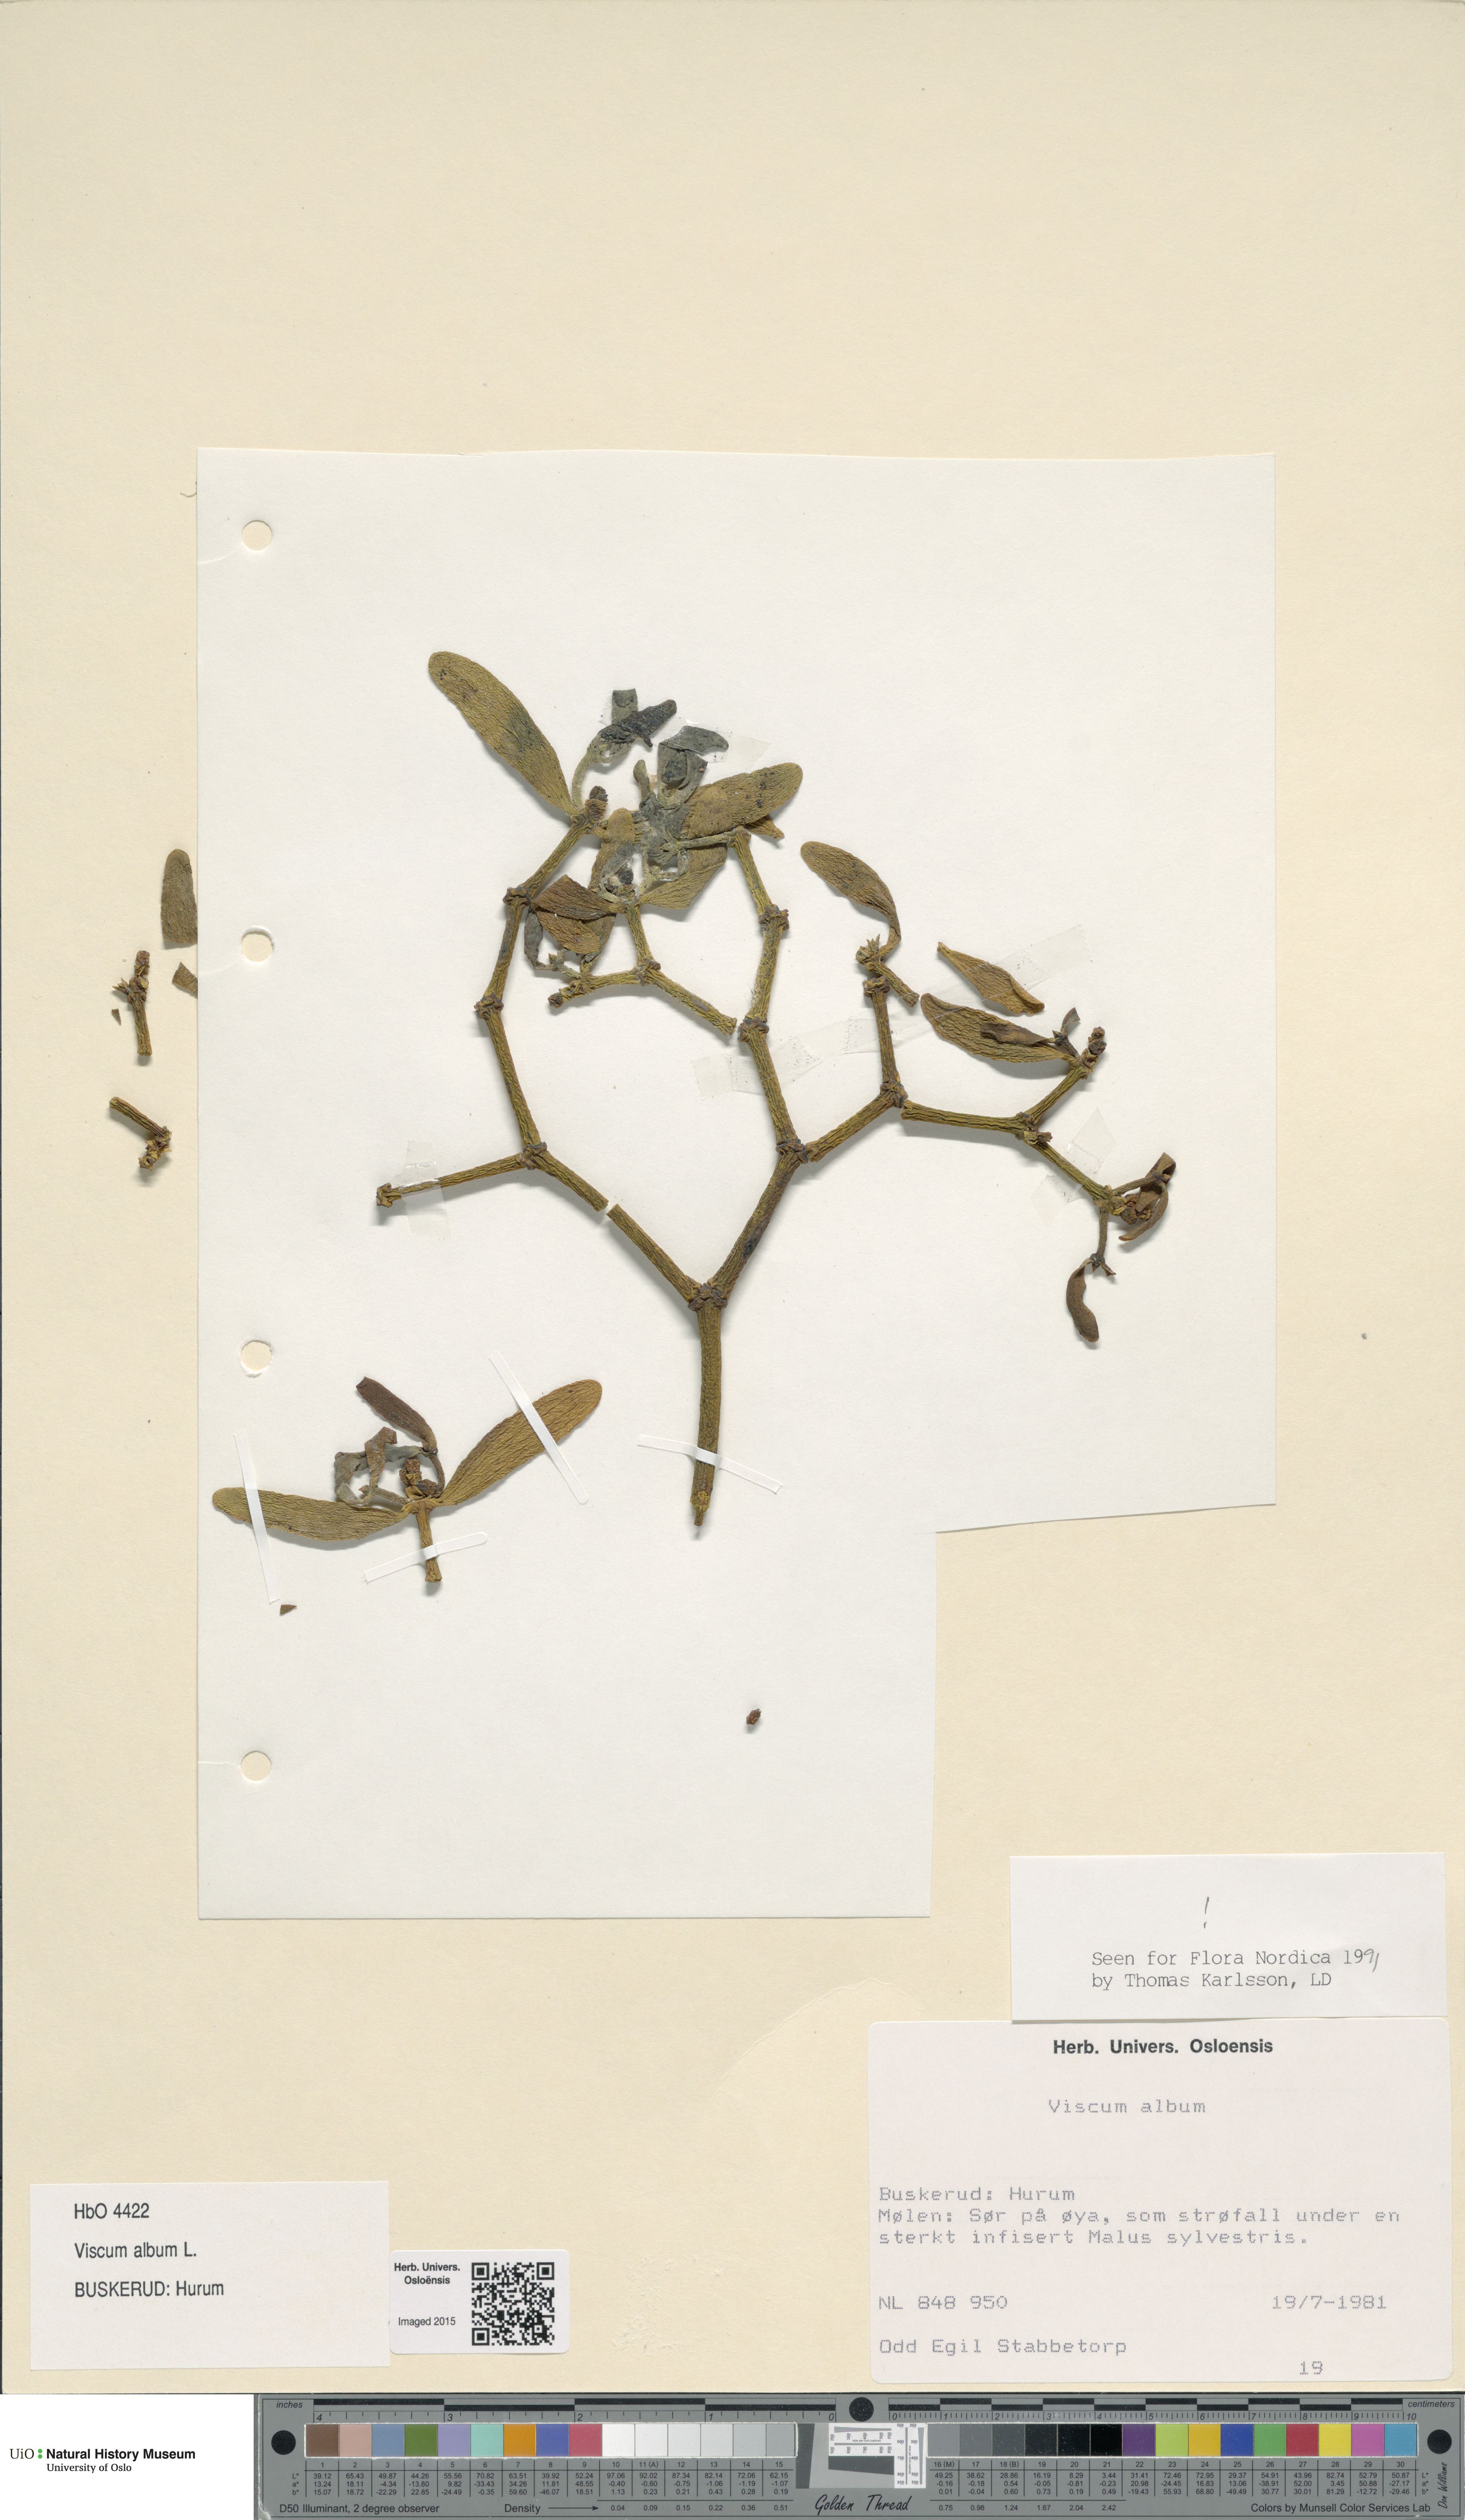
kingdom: Plantae
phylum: Tracheophyta
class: Magnoliopsida
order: Santalales
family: Viscaceae
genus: Viscum
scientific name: Viscum album
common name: Mistletoe
